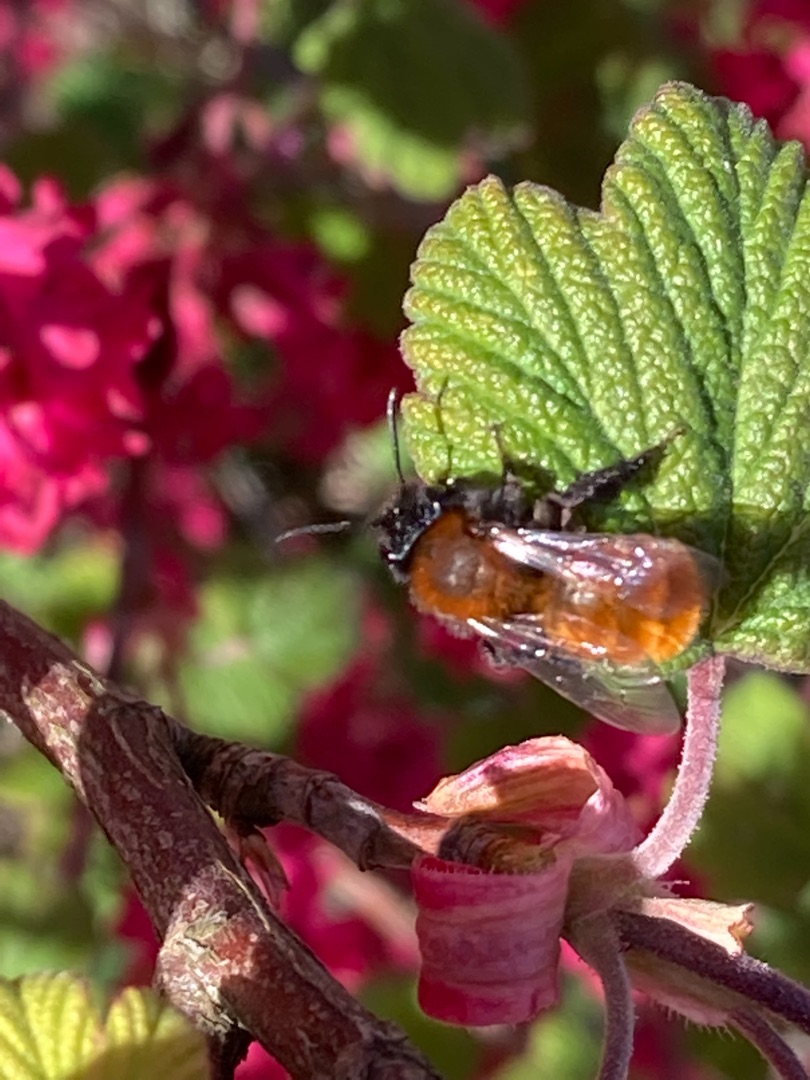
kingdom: Animalia
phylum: Arthropoda
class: Insecta
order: Hymenoptera
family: Andrenidae
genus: Andrena
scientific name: Andrena fulva
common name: Rødpelset jordbi
